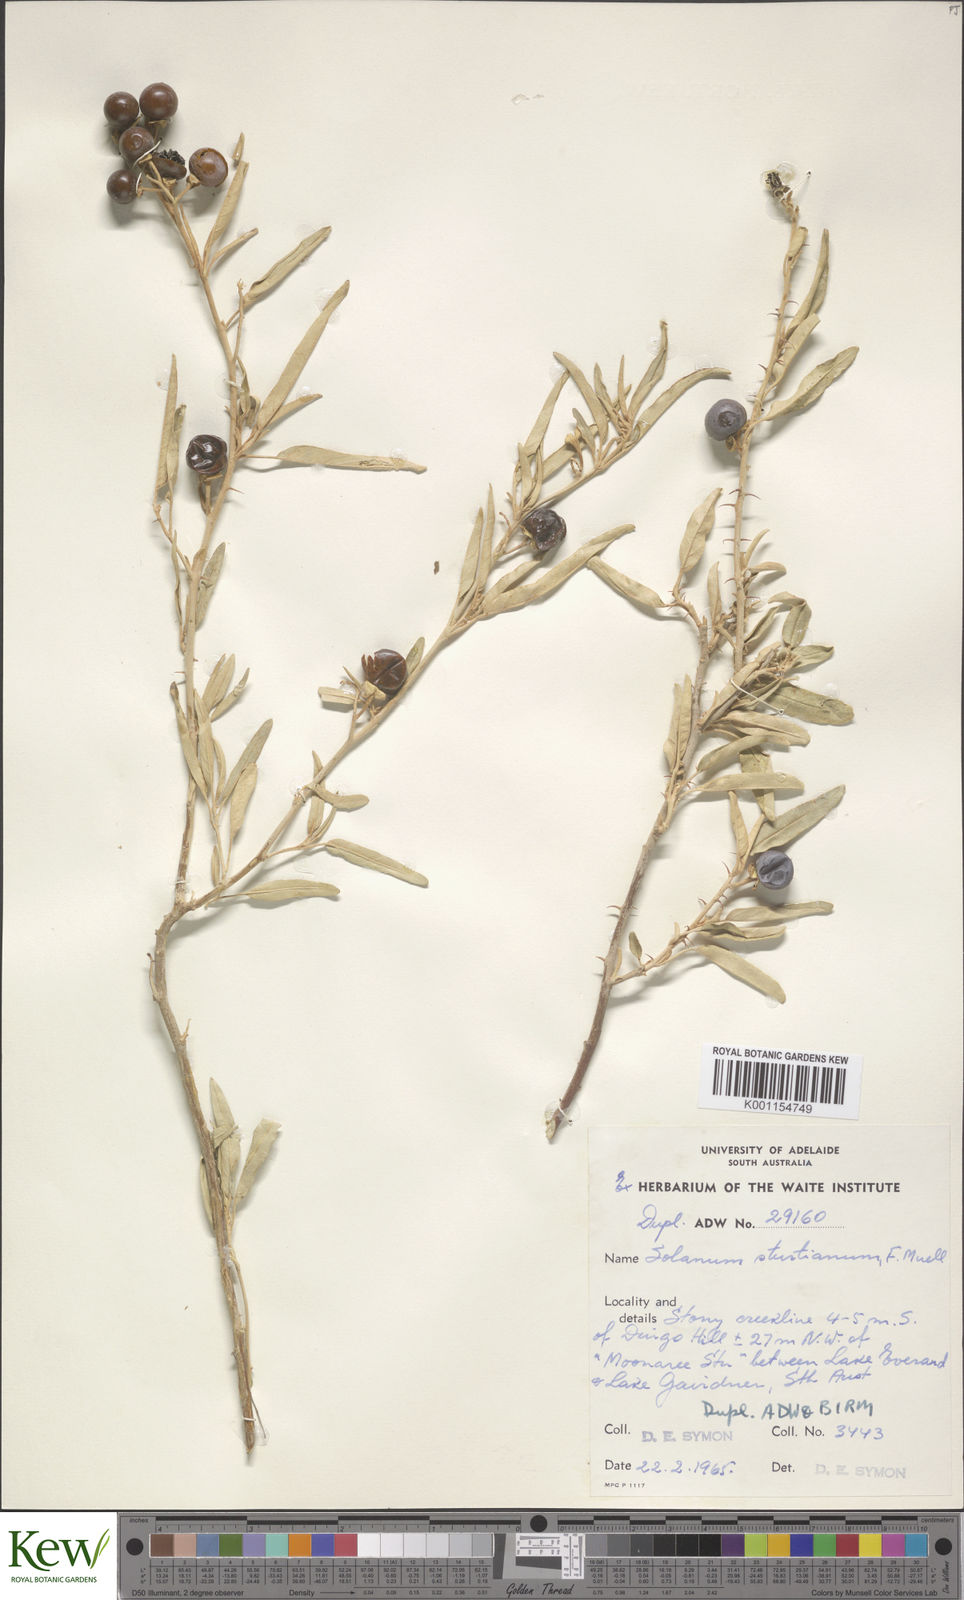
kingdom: Plantae
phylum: Tracheophyta
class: Magnoliopsida
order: Solanales
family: Solanaceae
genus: Solanum
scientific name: Solanum sturtianum
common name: Thargomindah nightshade
